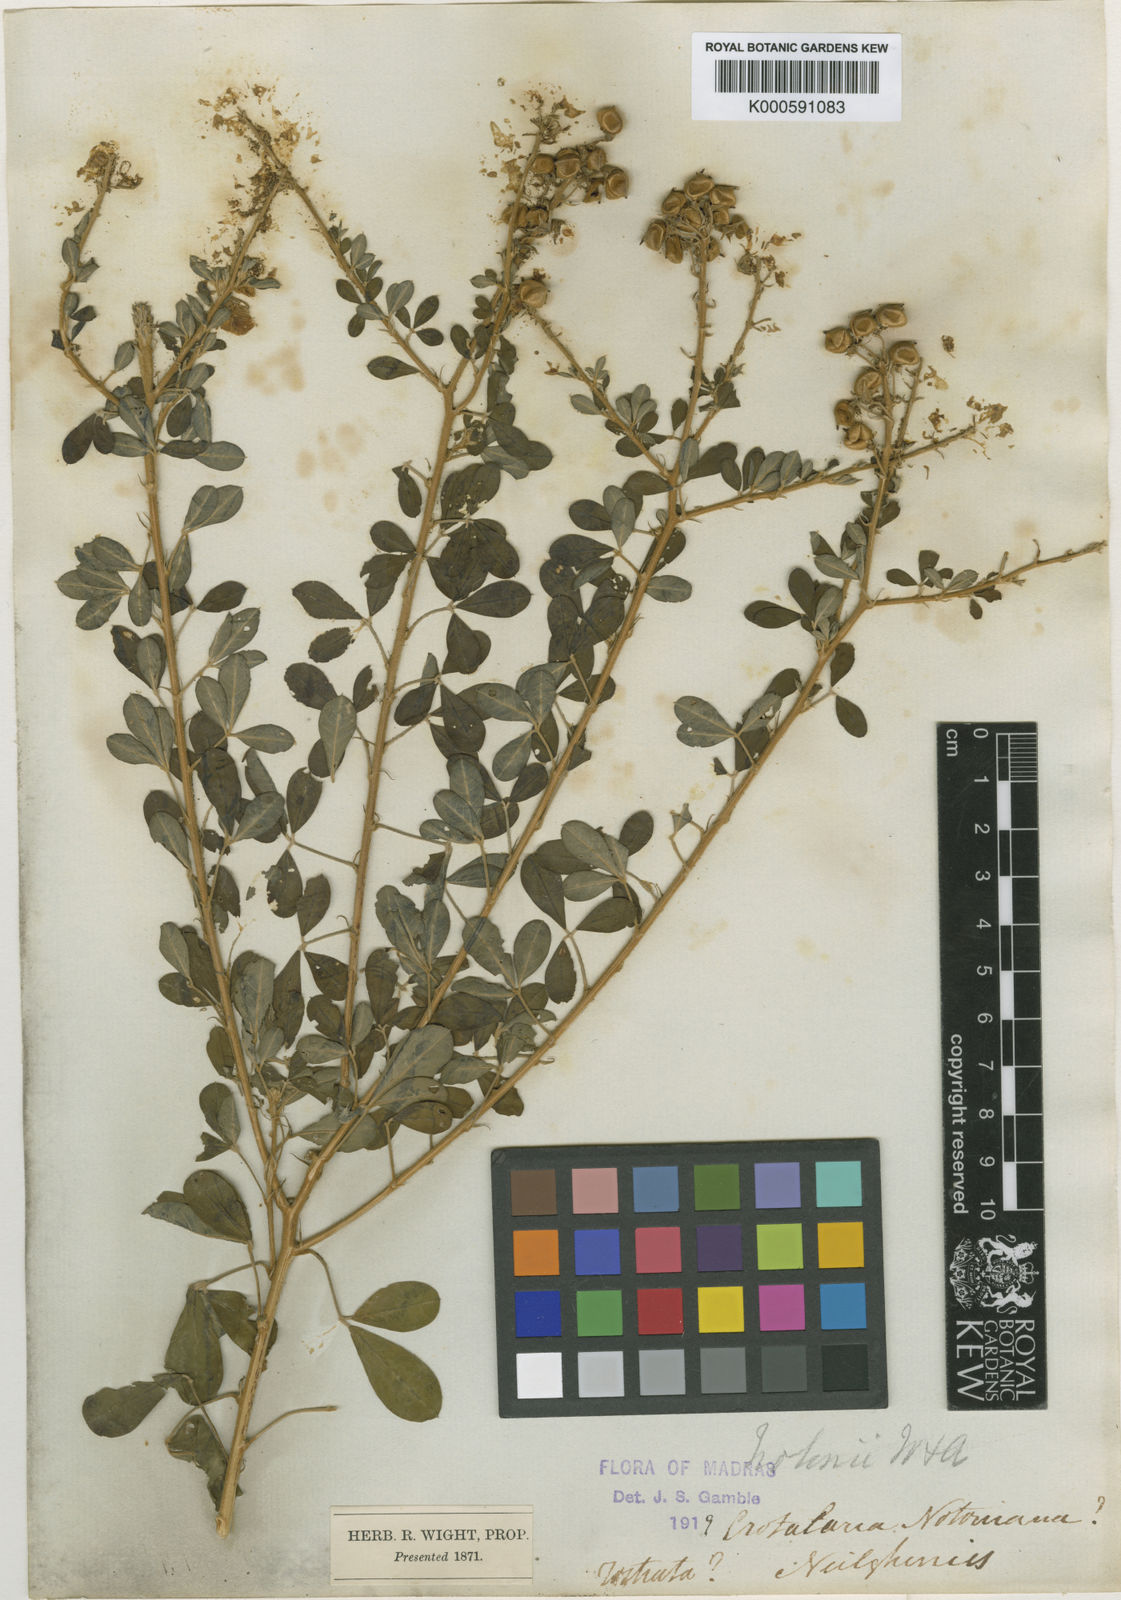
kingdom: Plantae
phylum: Tracheophyta
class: Magnoliopsida
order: Fabales
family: Fabaceae
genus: Crotalaria
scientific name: Crotalaria notonii
